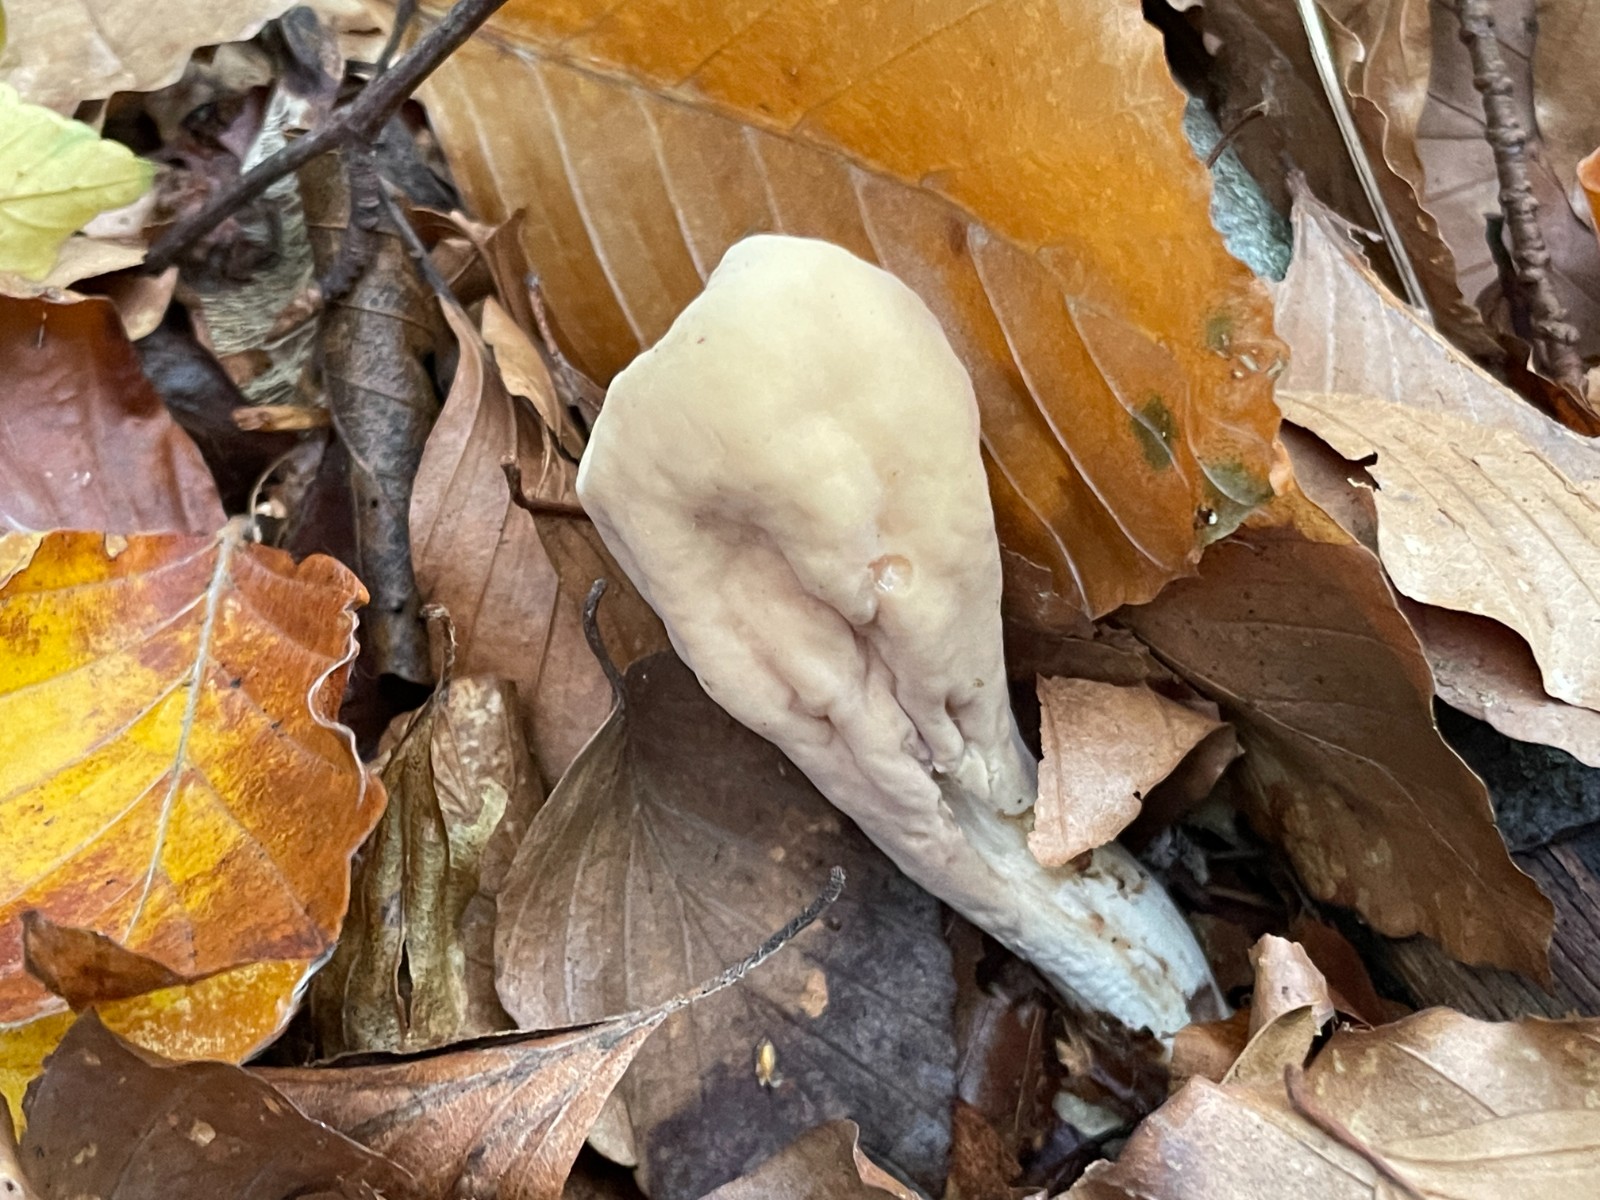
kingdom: Fungi
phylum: Basidiomycota
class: Agaricomycetes
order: Gomphales
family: Clavariadelphaceae
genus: Clavariadelphus
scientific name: Clavariadelphus pistillaris
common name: herkules-kæmpekølle
